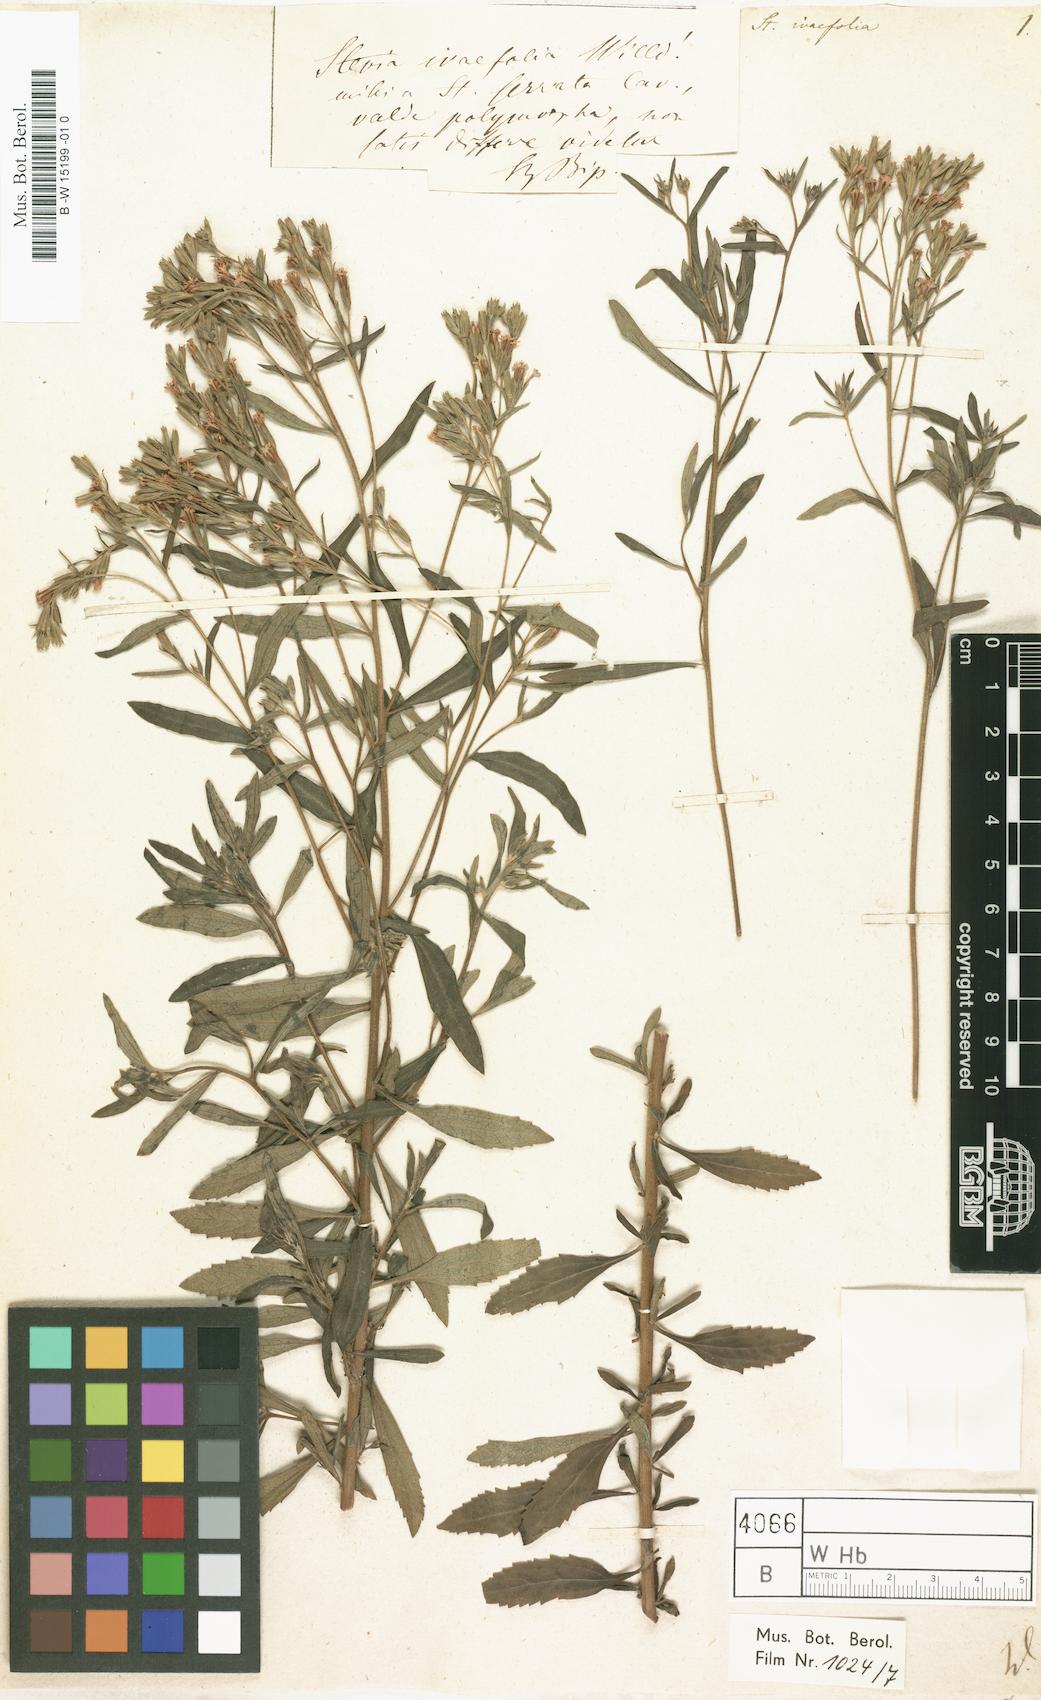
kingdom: Plantae
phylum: Tracheophyta
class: Magnoliopsida
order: Asterales
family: Asteraceae
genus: Stevia
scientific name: Stevia serrata
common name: Sawtooth candyleaf
